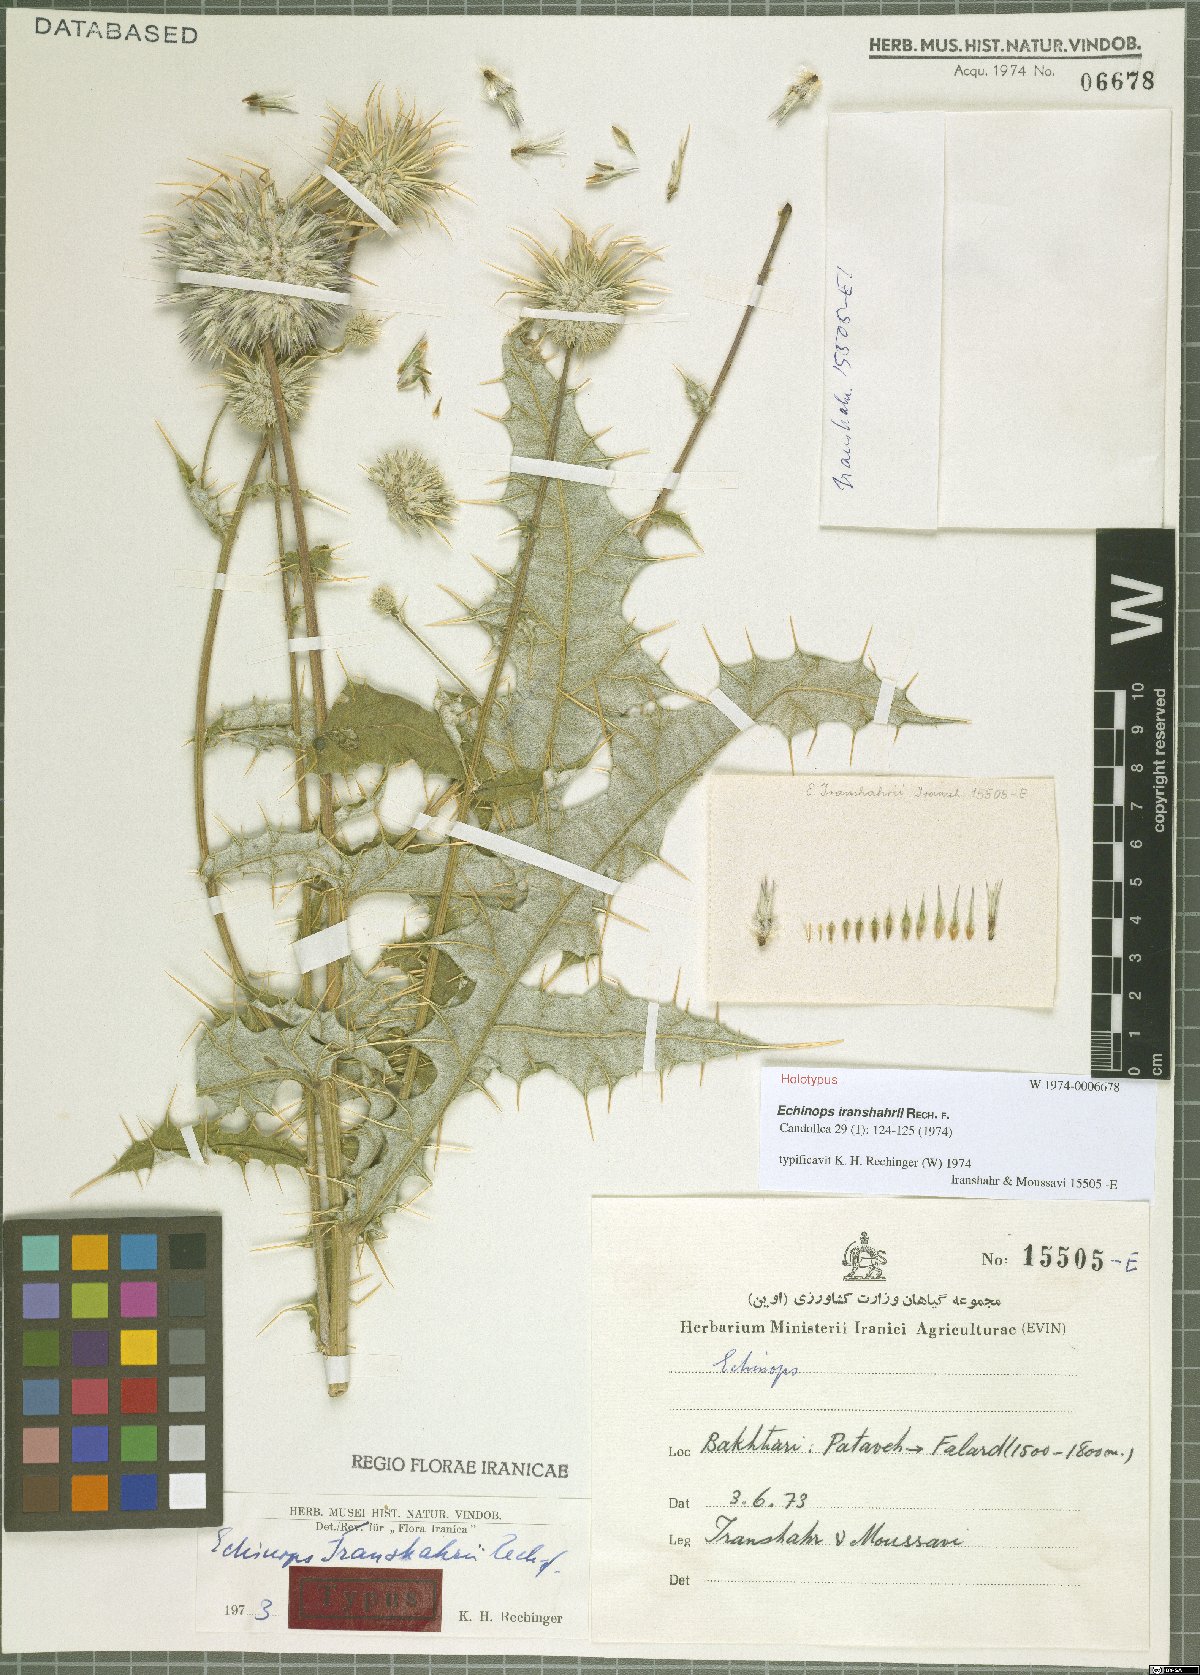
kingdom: Plantae
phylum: Tracheophyta
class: Magnoliopsida
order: Asterales
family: Asteraceae
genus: Echinops
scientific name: Echinops iranshahrii
